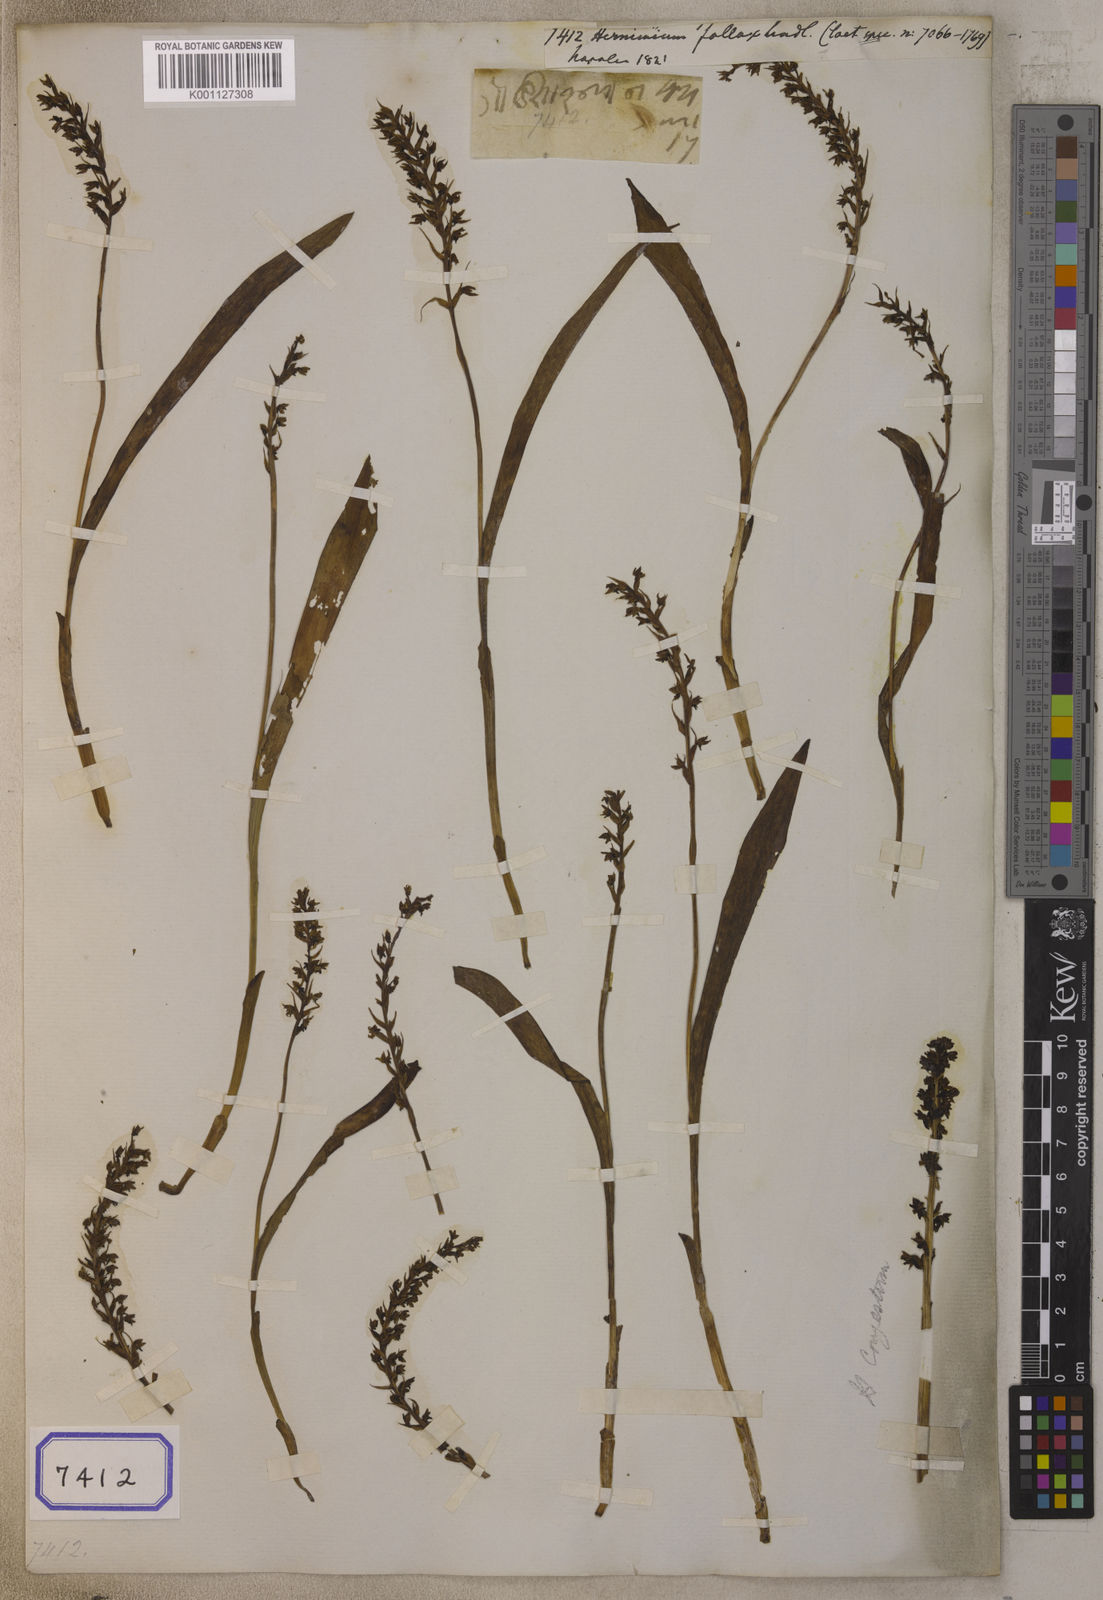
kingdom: Plantae
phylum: Tracheophyta
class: Liliopsida
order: Asparagales
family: Orchidaceae
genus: Herminium
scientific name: Herminium fallax
